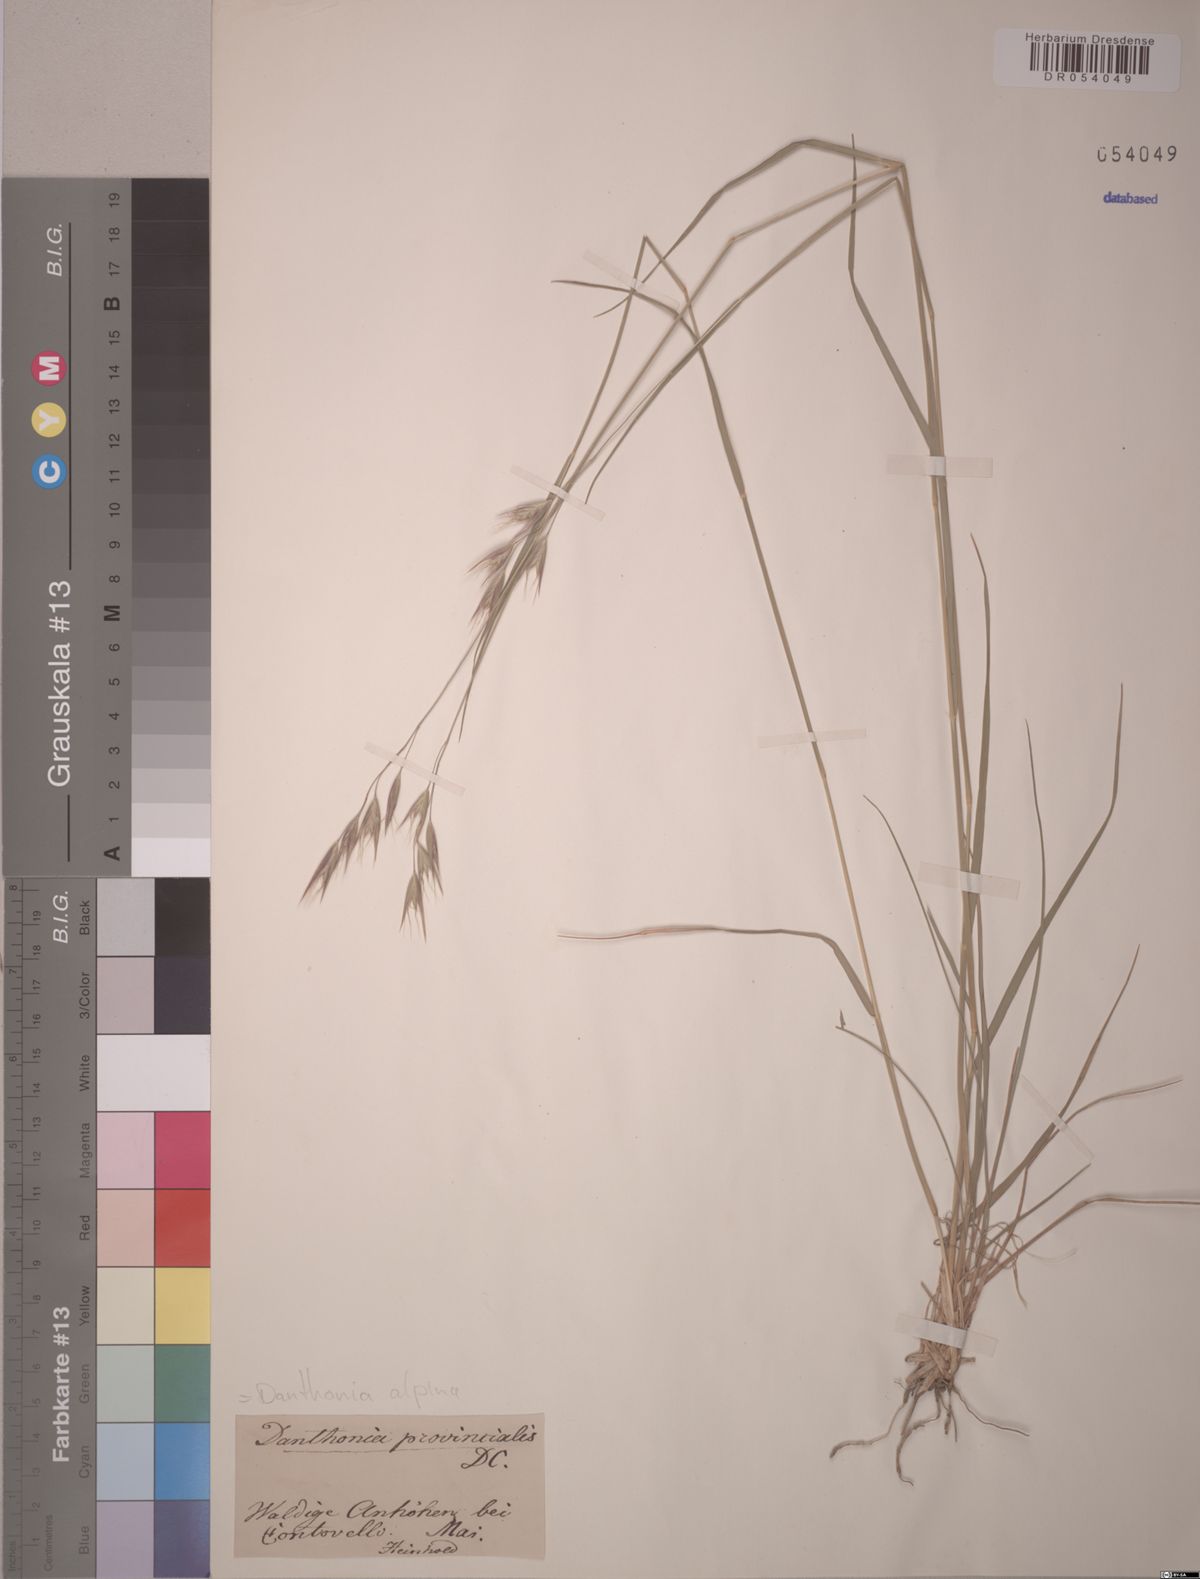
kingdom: Plantae
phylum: Tracheophyta
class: Liliopsida
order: Poales
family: Poaceae
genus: Danthonia
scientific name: Danthonia alpina
